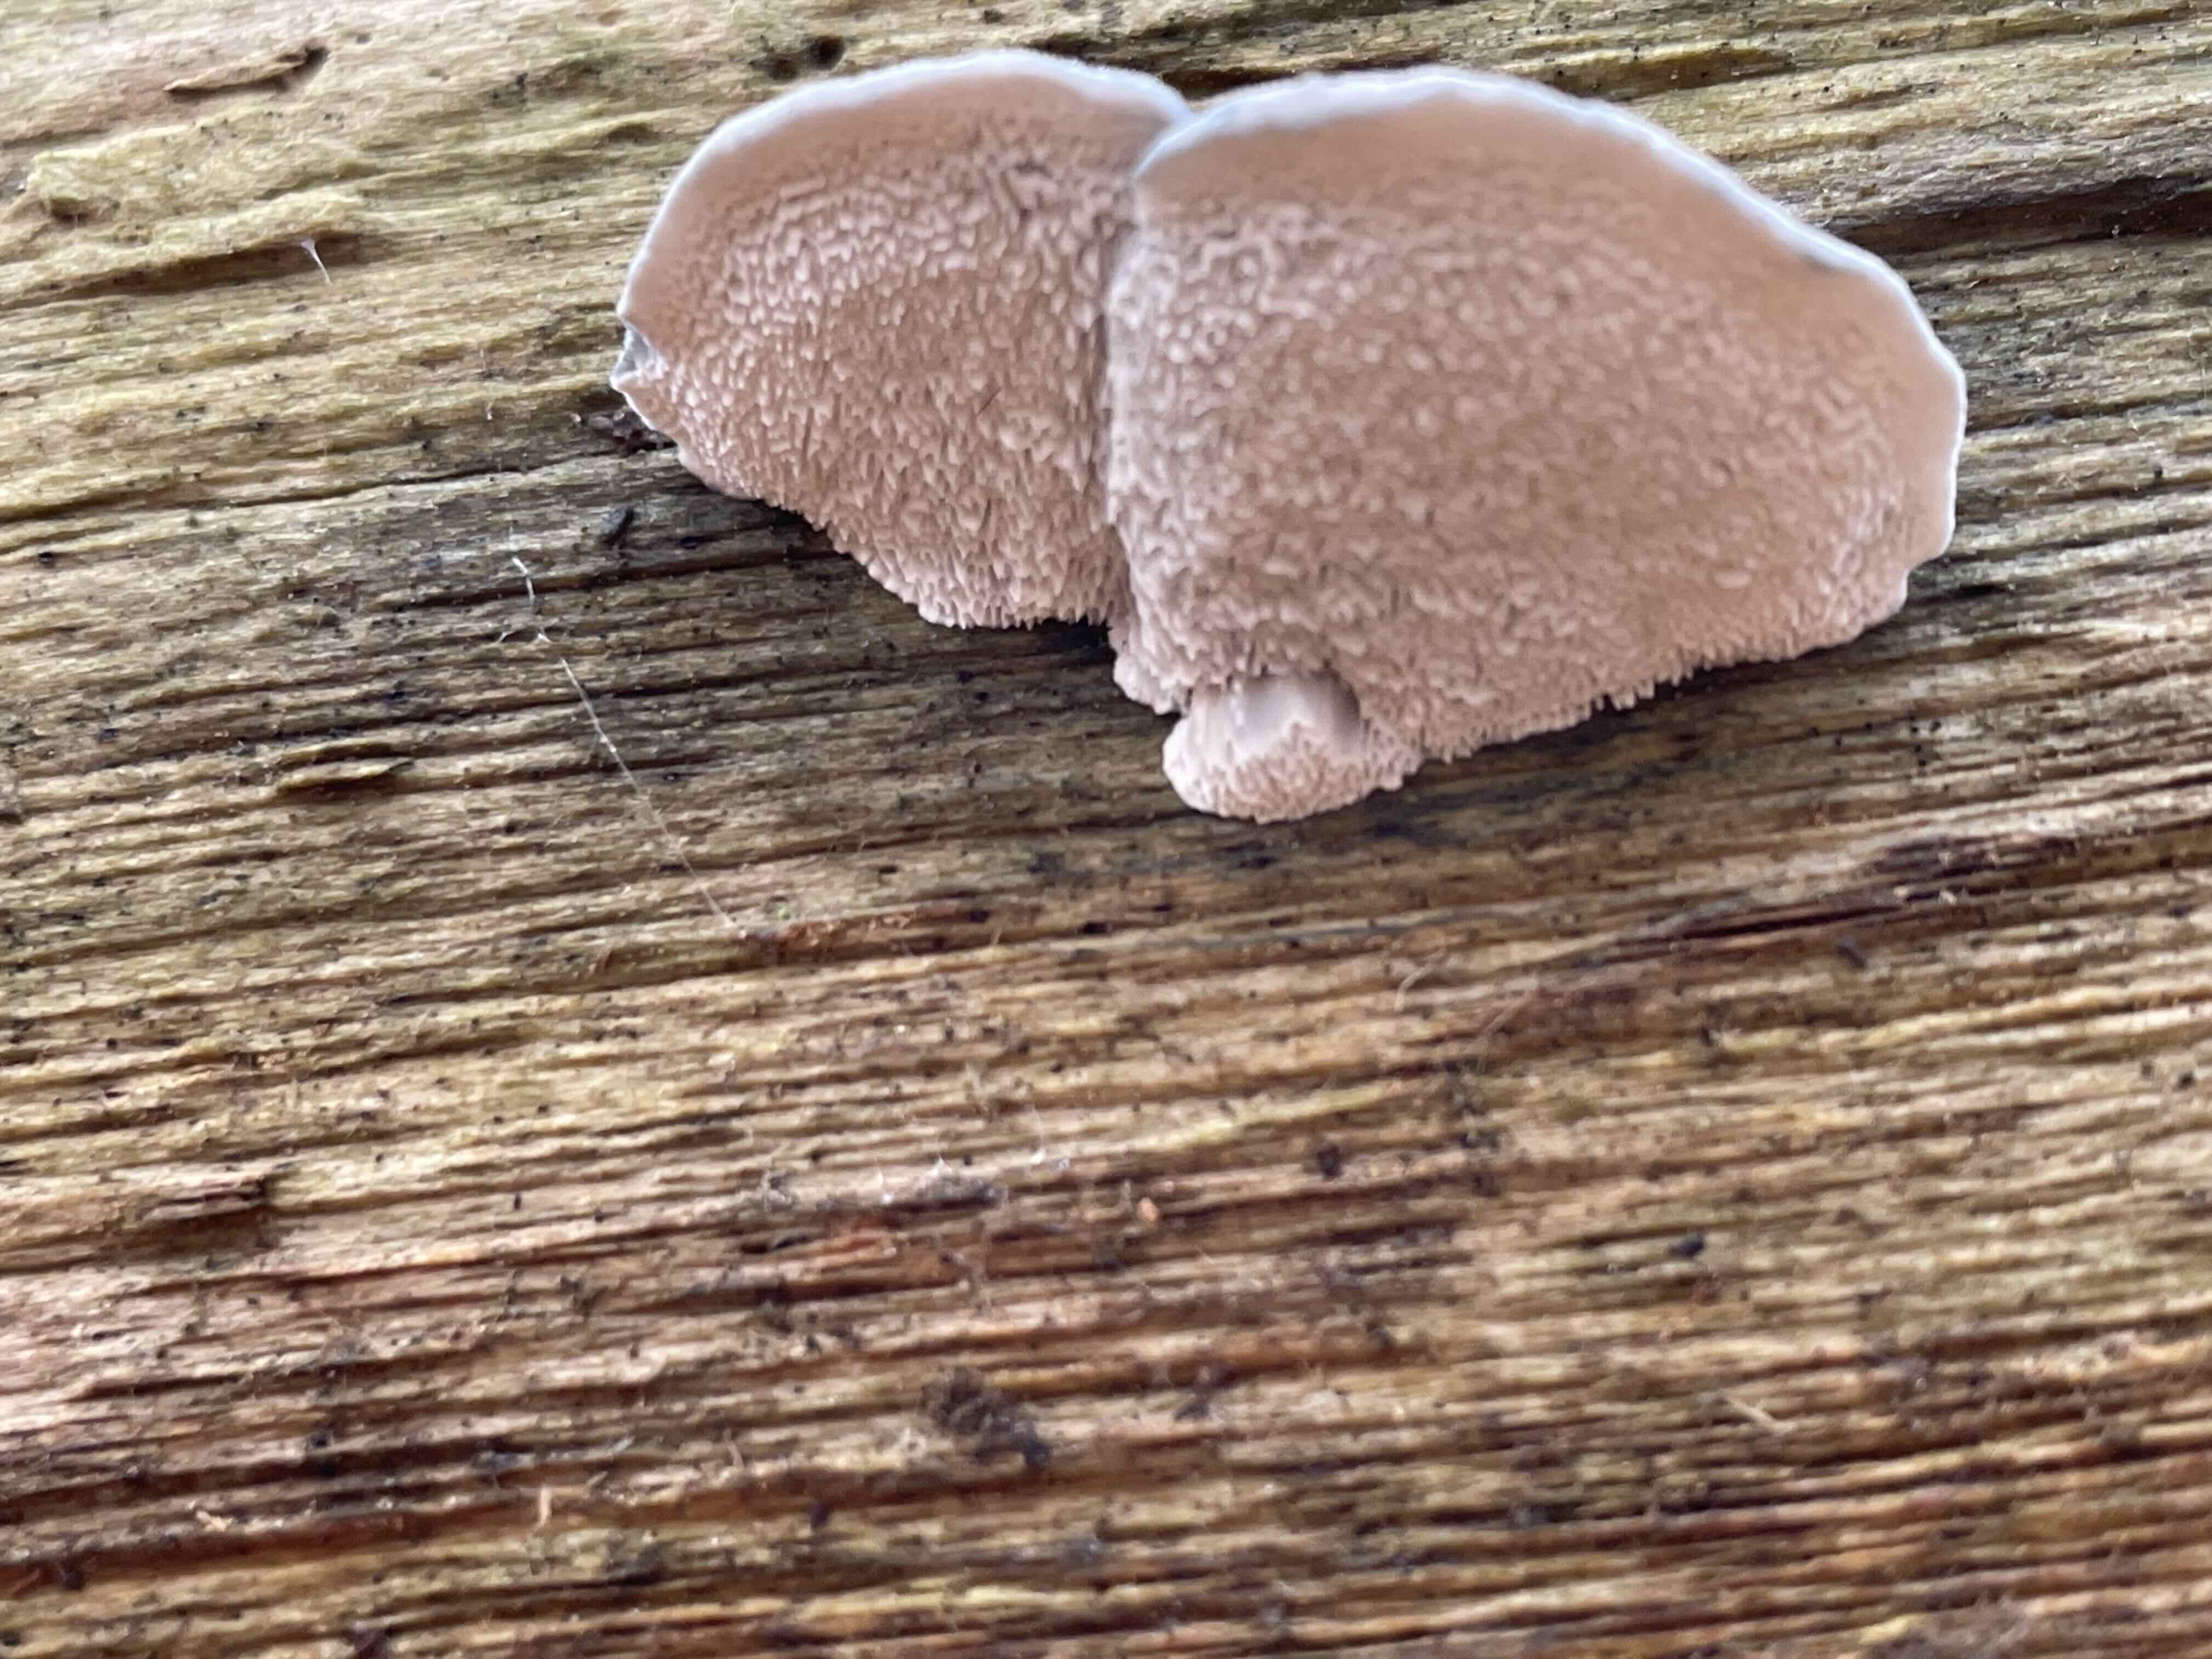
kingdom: Fungi
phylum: Basidiomycota
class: Agaricomycetes
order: Polyporales
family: Polyporaceae
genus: Cyanosporus
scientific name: Cyanosporus caesius
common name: blålig kødporesvamp
